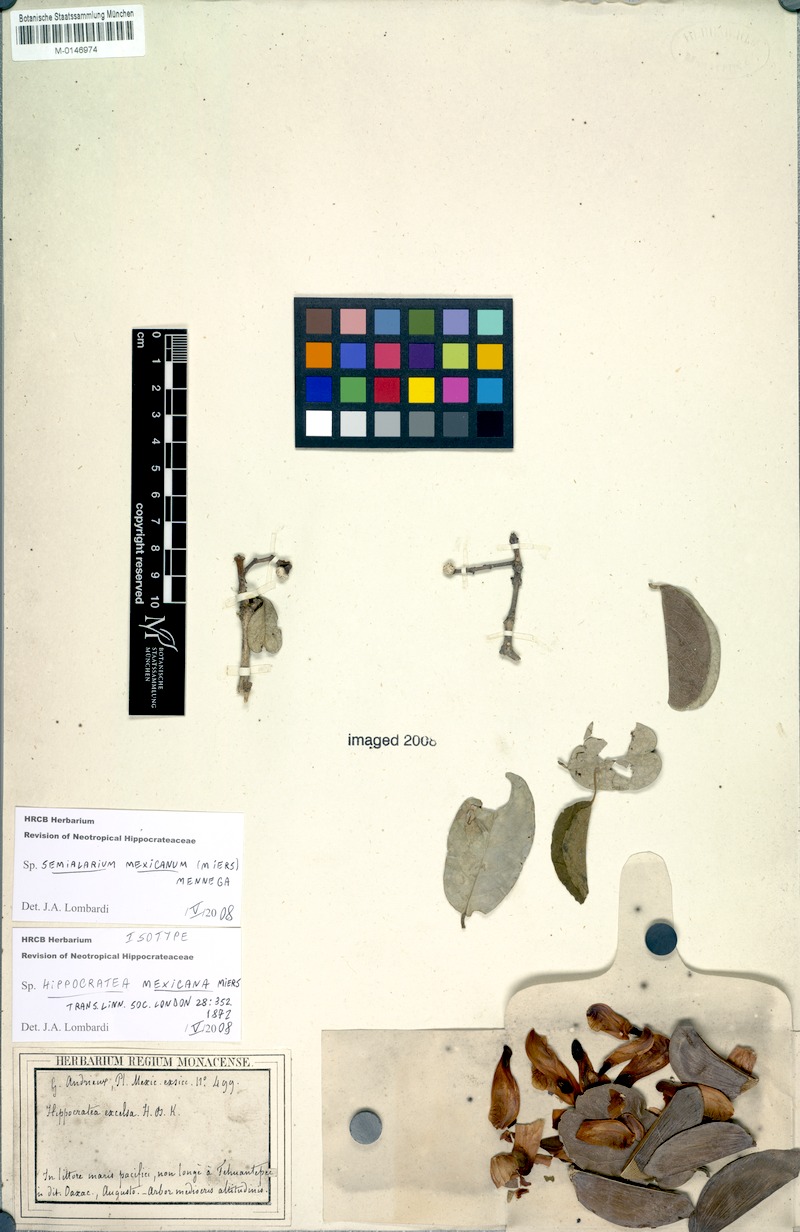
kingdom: Plantae
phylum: Tracheophyta
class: Magnoliopsida
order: Celastrales
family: Celastraceae
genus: Semialarium
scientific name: Semialarium mexicanum
